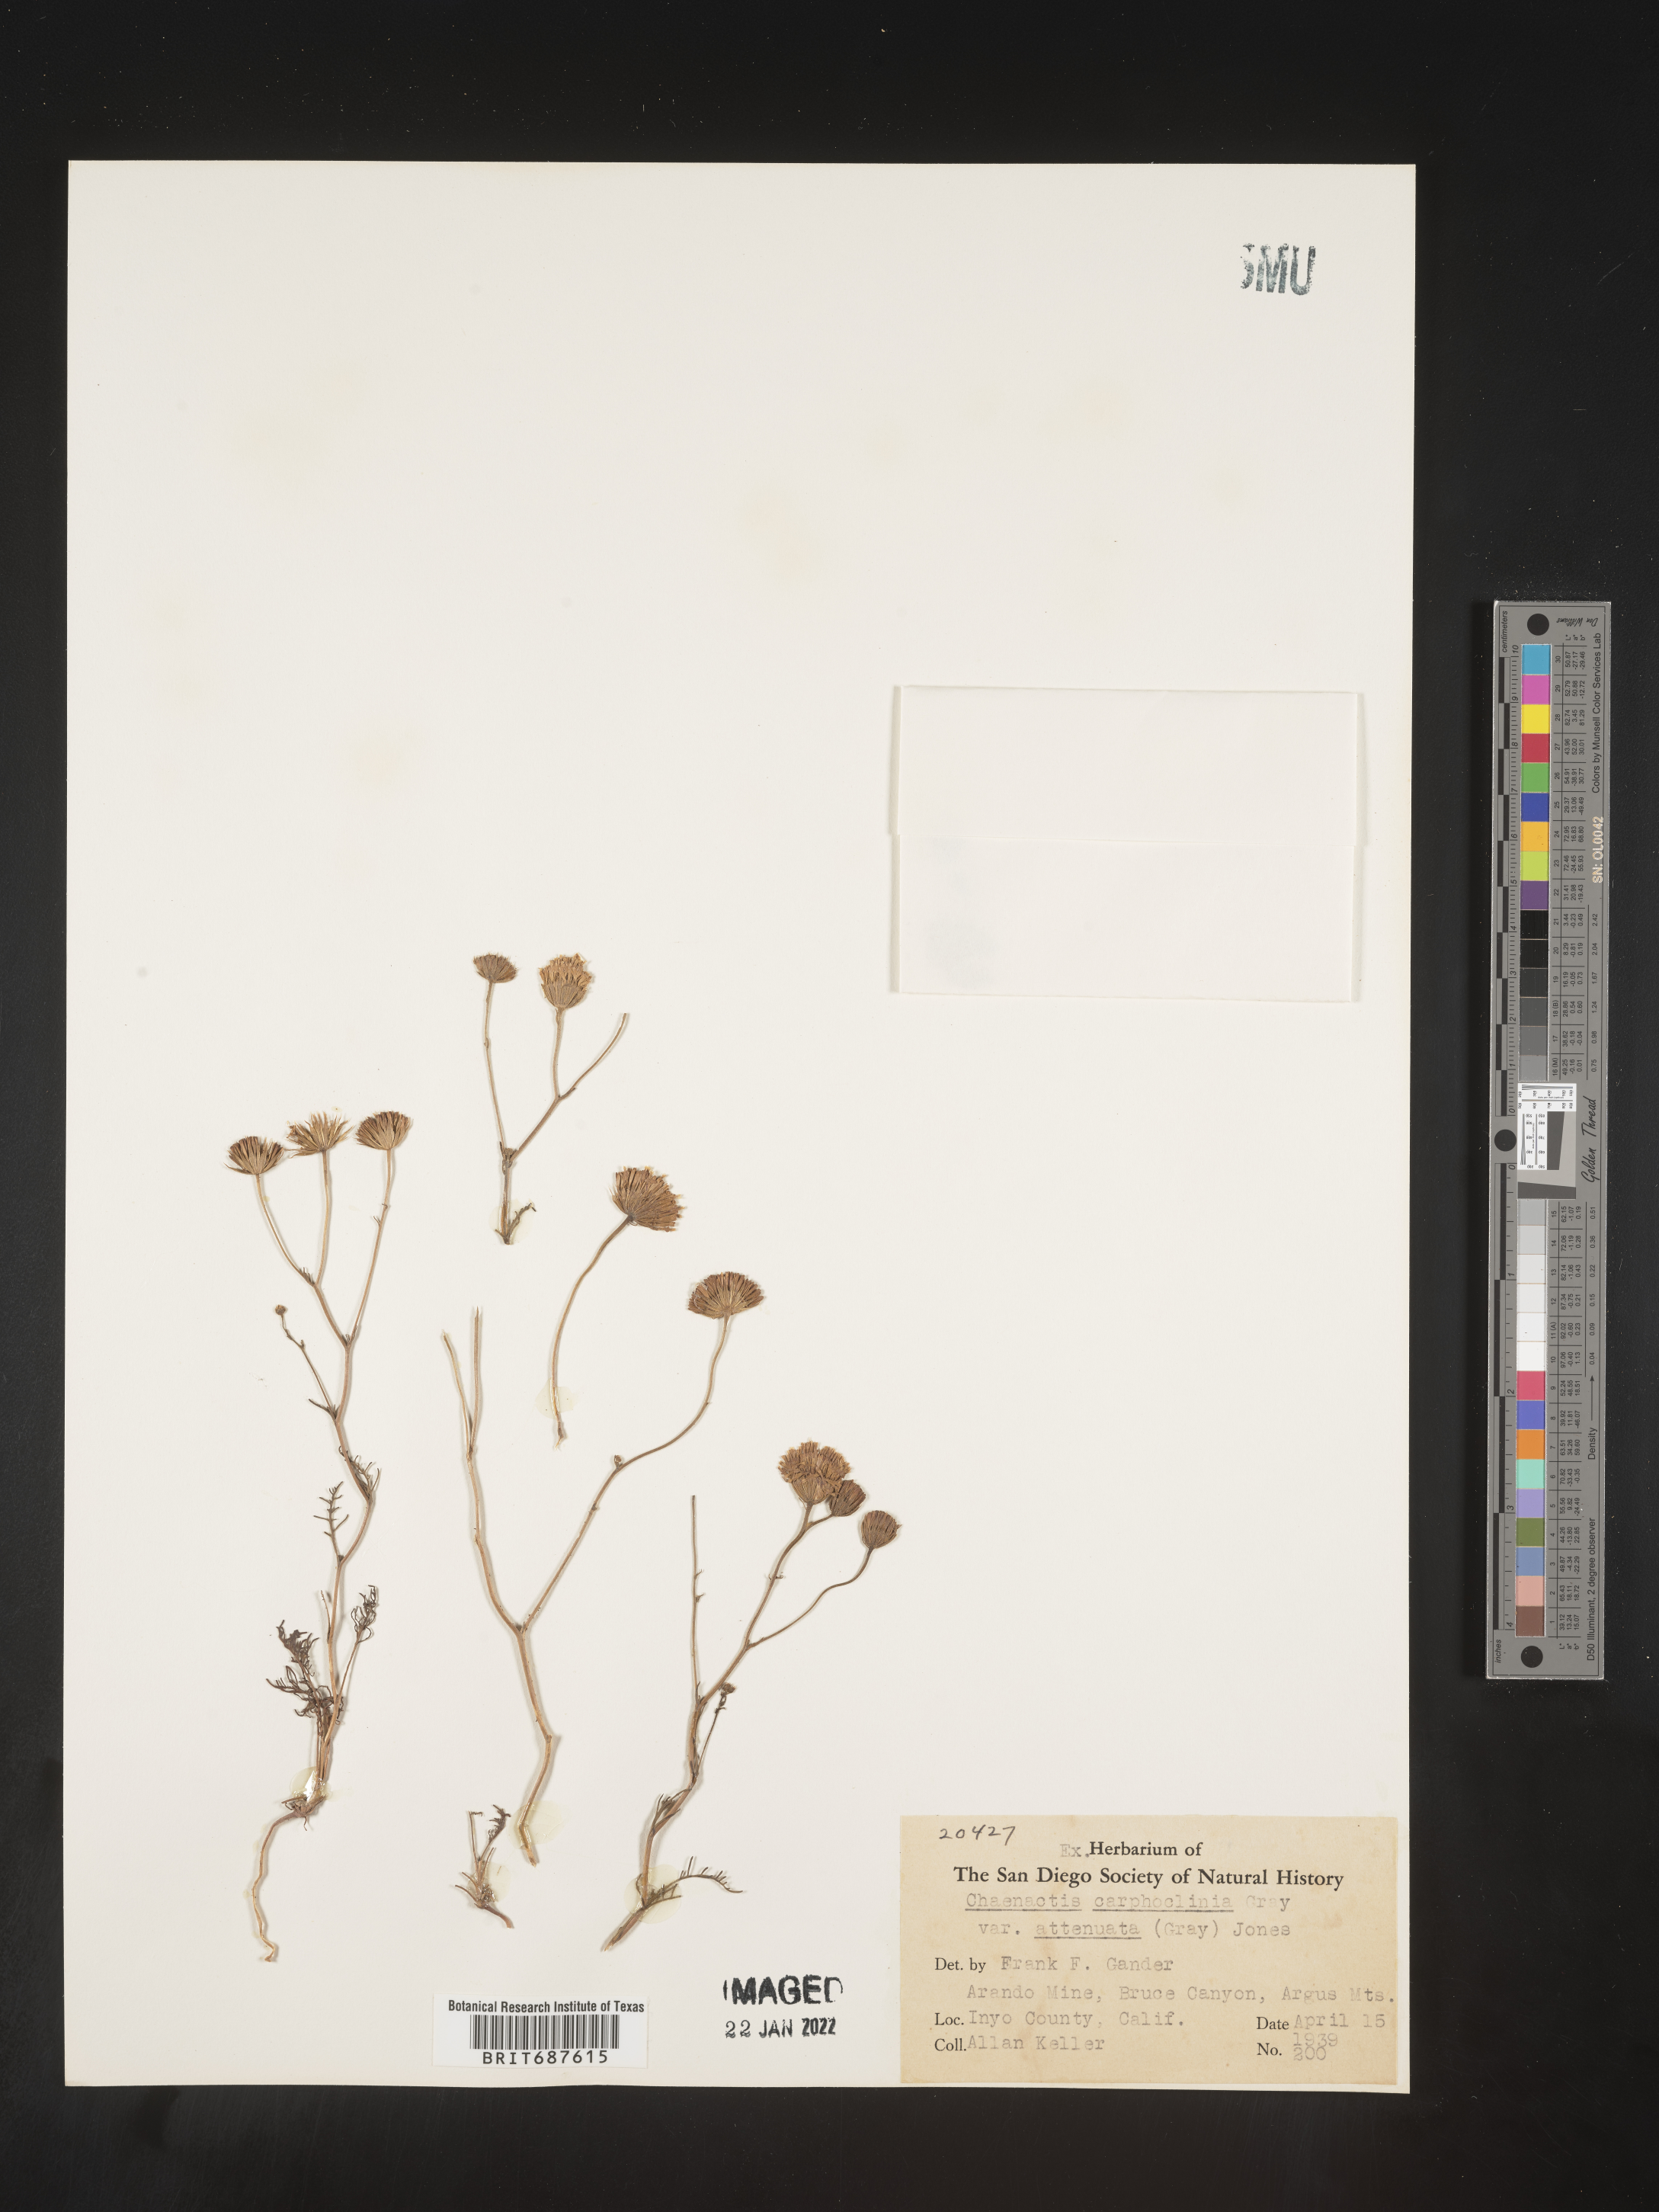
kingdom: Plantae
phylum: Tracheophyta
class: Magnoliopsida
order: Asterales
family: Asteraceae
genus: Chaenactis
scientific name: Chaenactis carphoclinia
